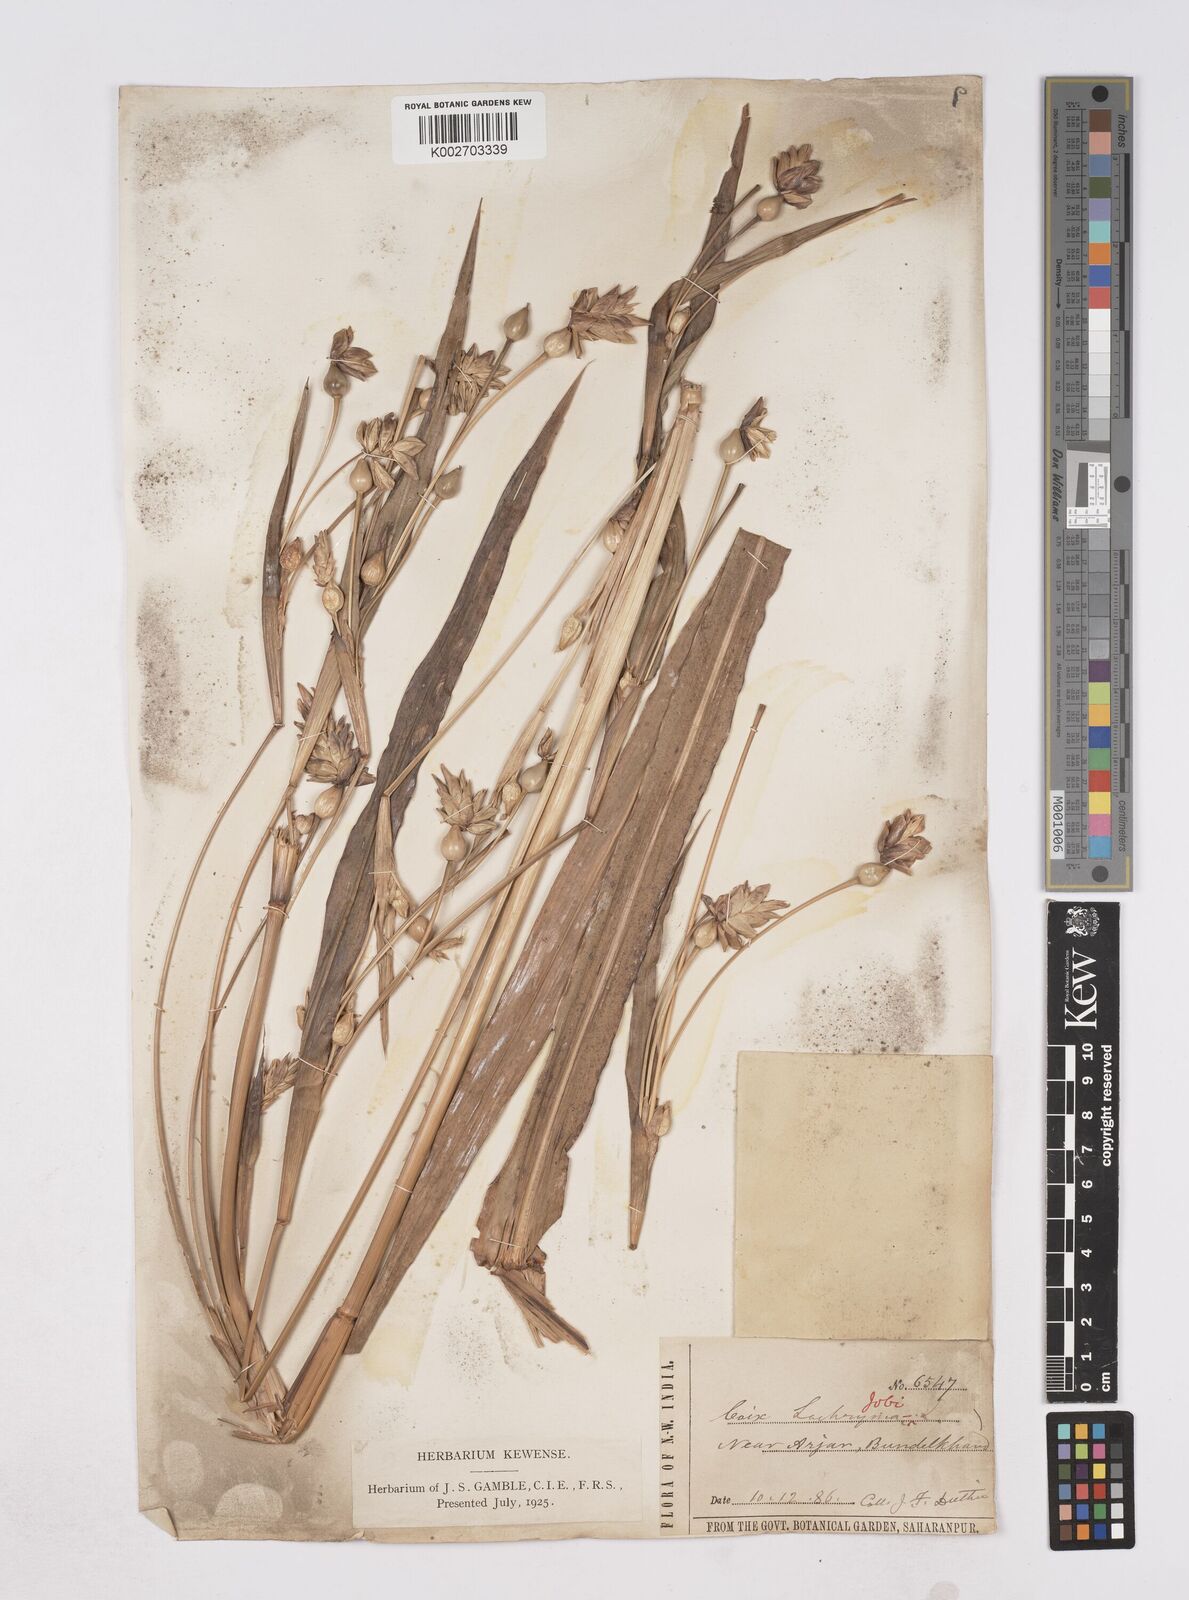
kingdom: Plantae
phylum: Tracheophyta
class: Liliopsida
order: Poales
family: Poaceae
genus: Coix
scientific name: Coix lacryma-jobi
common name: Job's tears
